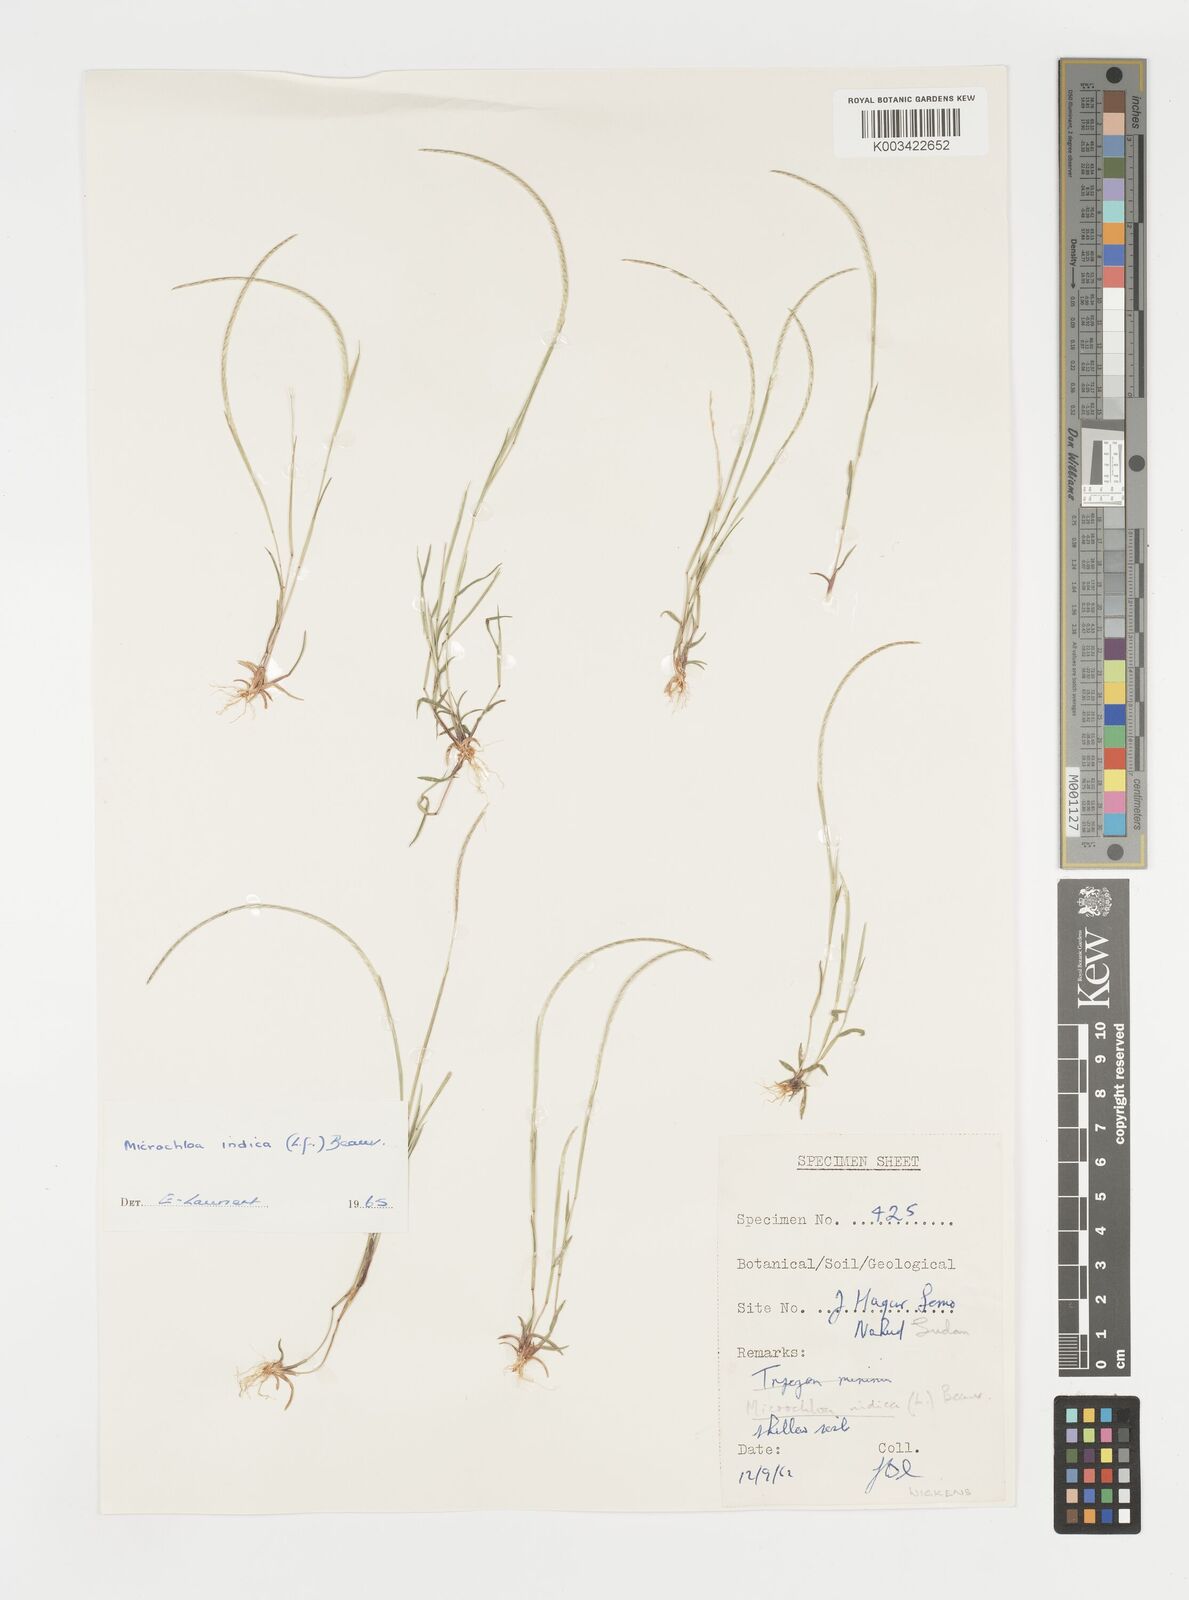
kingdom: Plantae
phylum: Tracheophyta
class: Liliopsida
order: Poales
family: Poaceae
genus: Microchloa
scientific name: Microchloa indica
